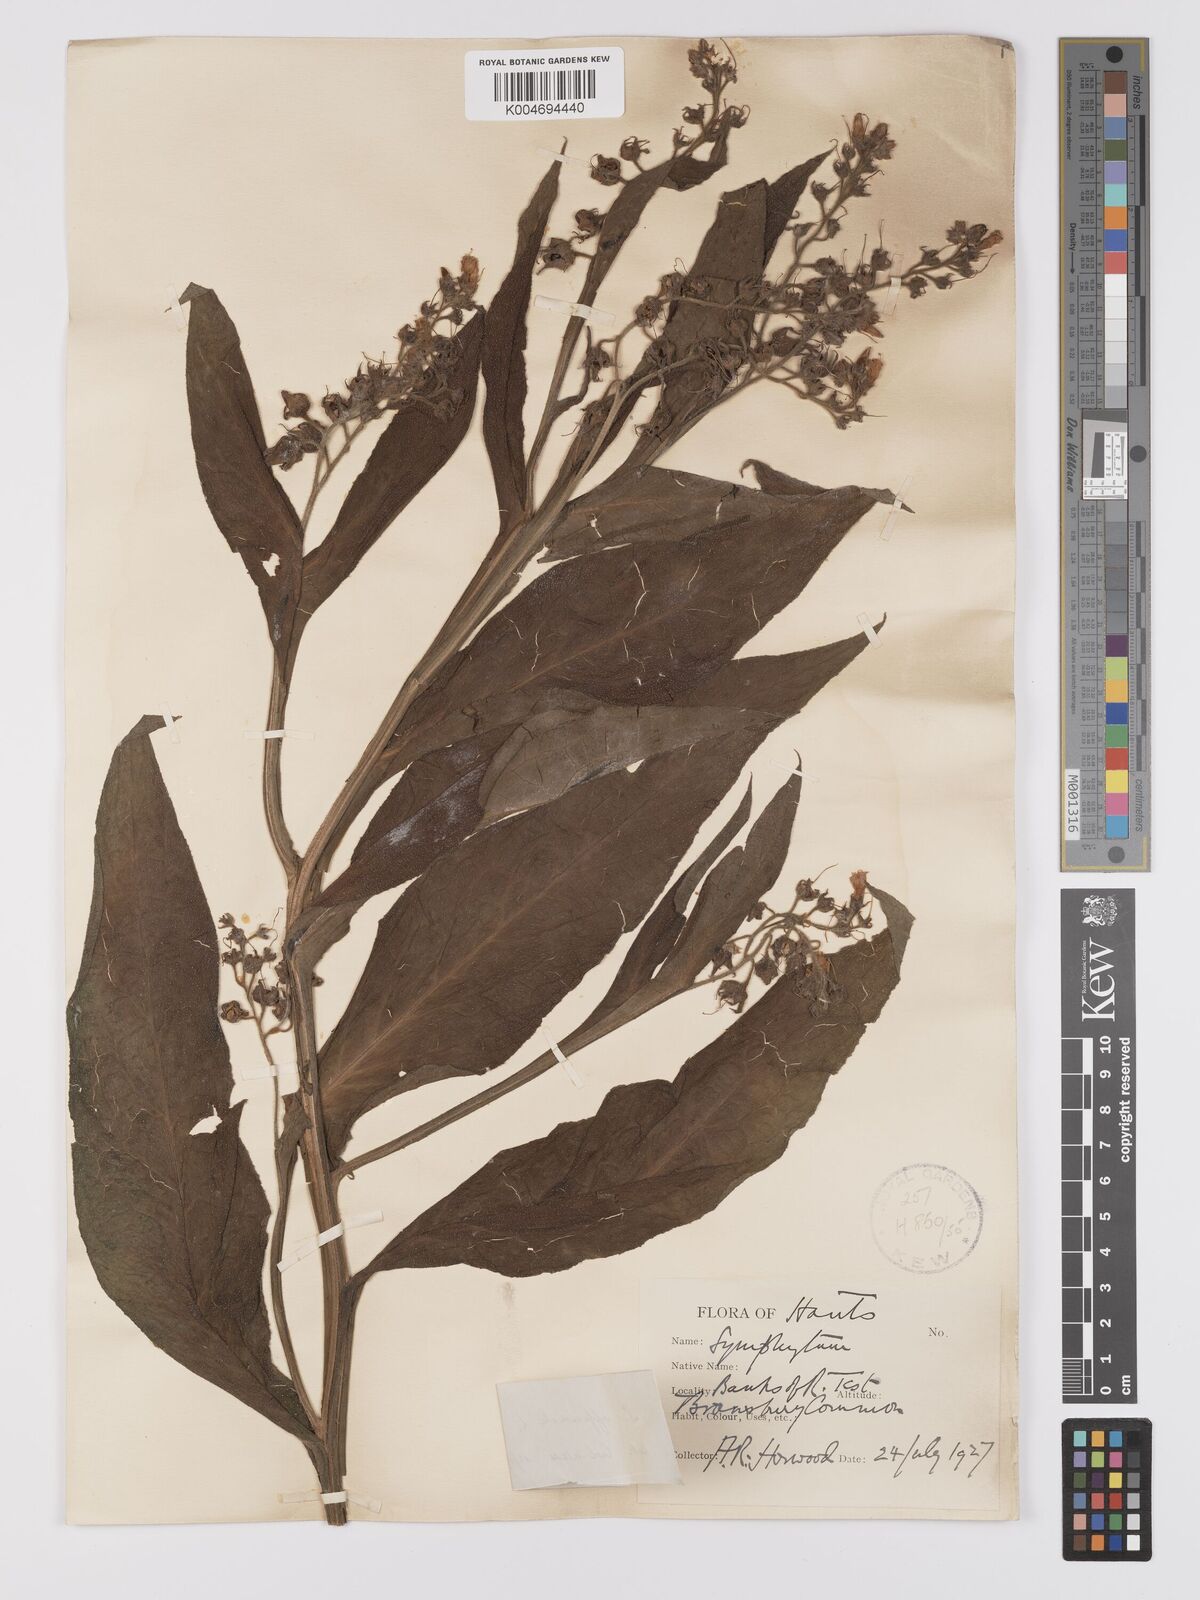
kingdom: Plantae
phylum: Tracheophyta
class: Magnoliopsida
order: Boraginales
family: Boraginaceae
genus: Symphytum
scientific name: Symphytum officinale
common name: Common comfrey
